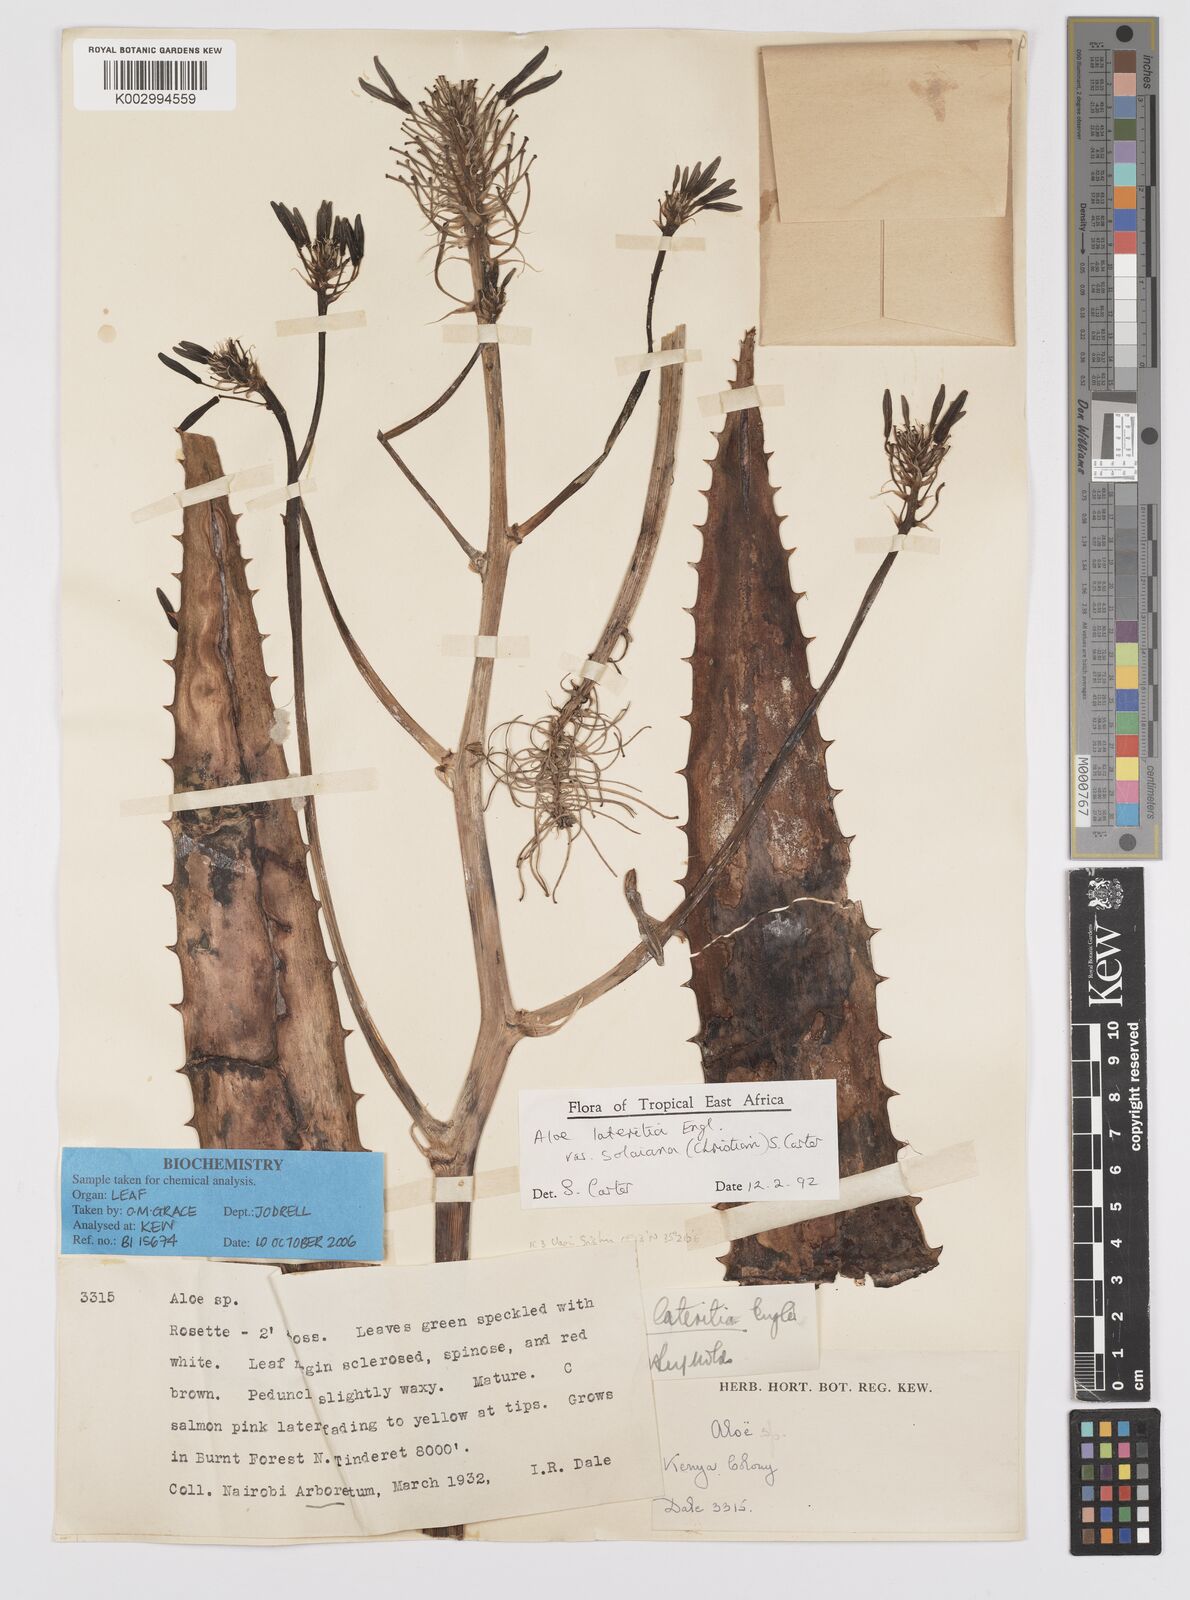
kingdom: Plantae
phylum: Tracheophyta
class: Liliopsida
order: Asparagales
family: Asphodelaceae
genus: Aloe
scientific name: Aloe lateritia
